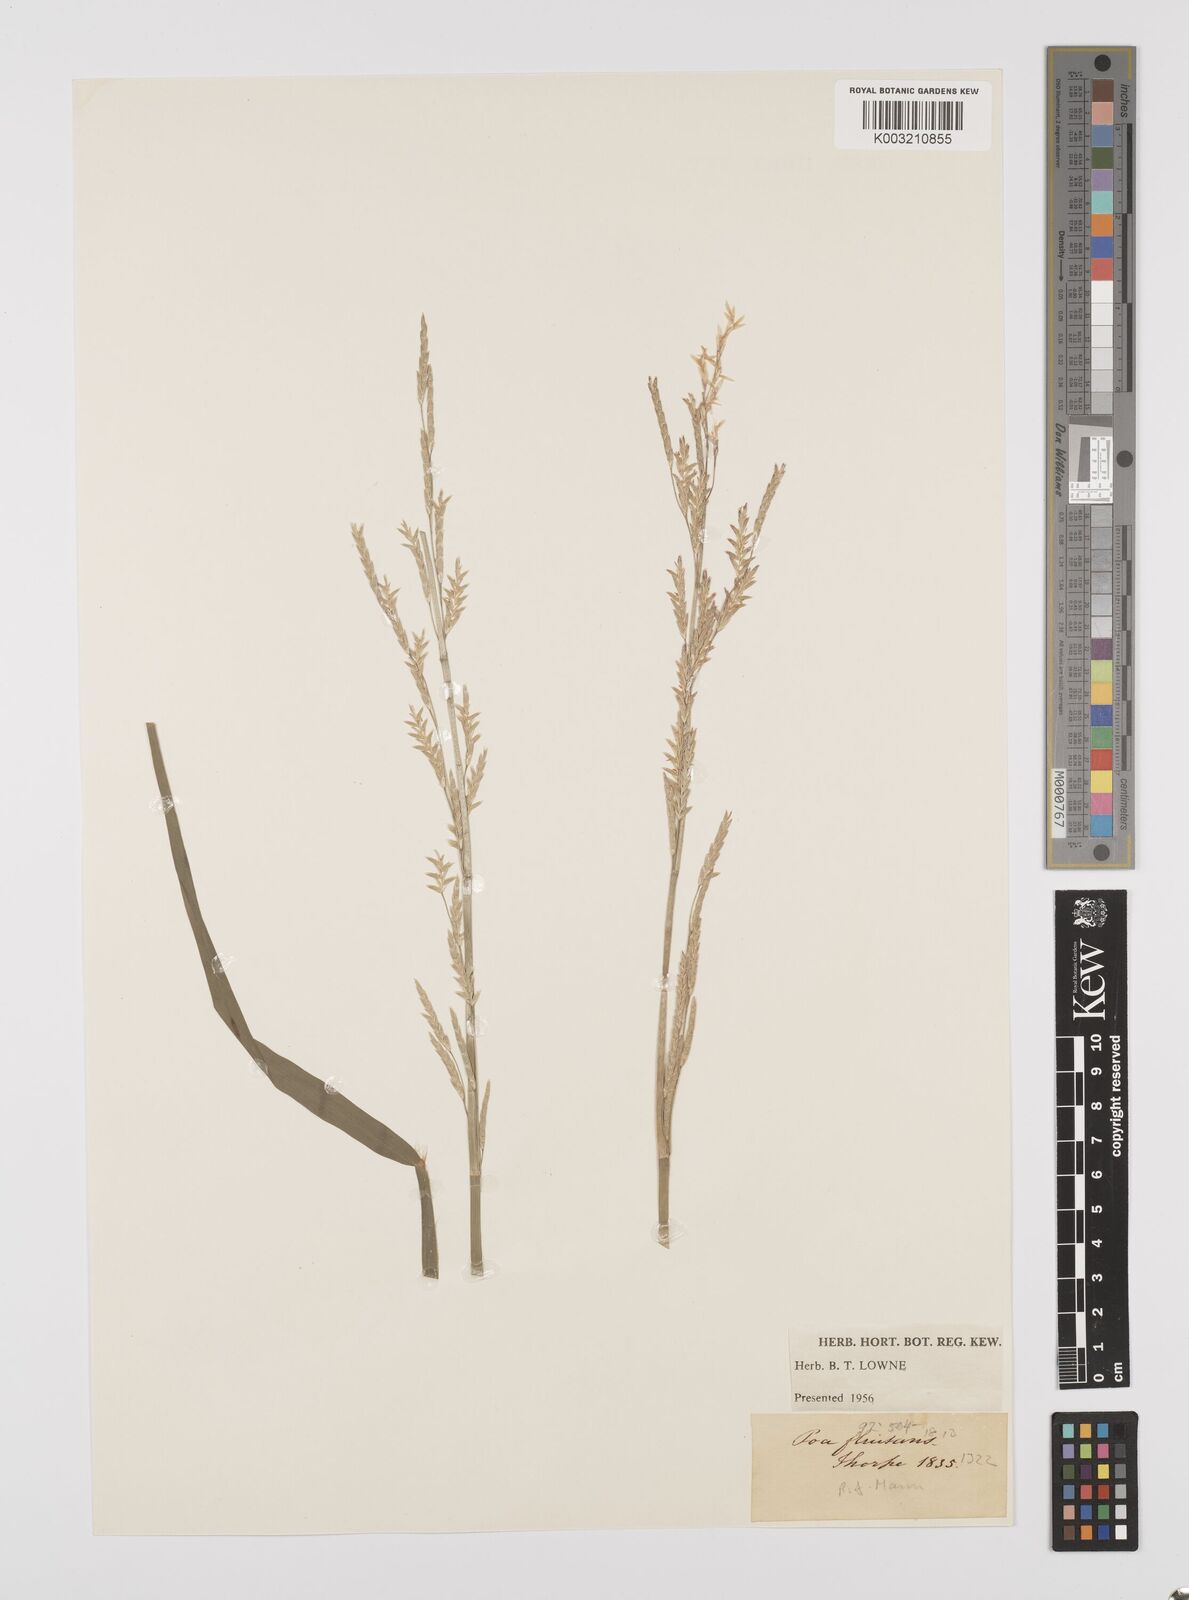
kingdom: Plantae
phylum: Tracheophyta
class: Liliopsida
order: Poales
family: Poaceae
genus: Glyceria
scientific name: Glyceria fluitans
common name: Floating sweet-grass
